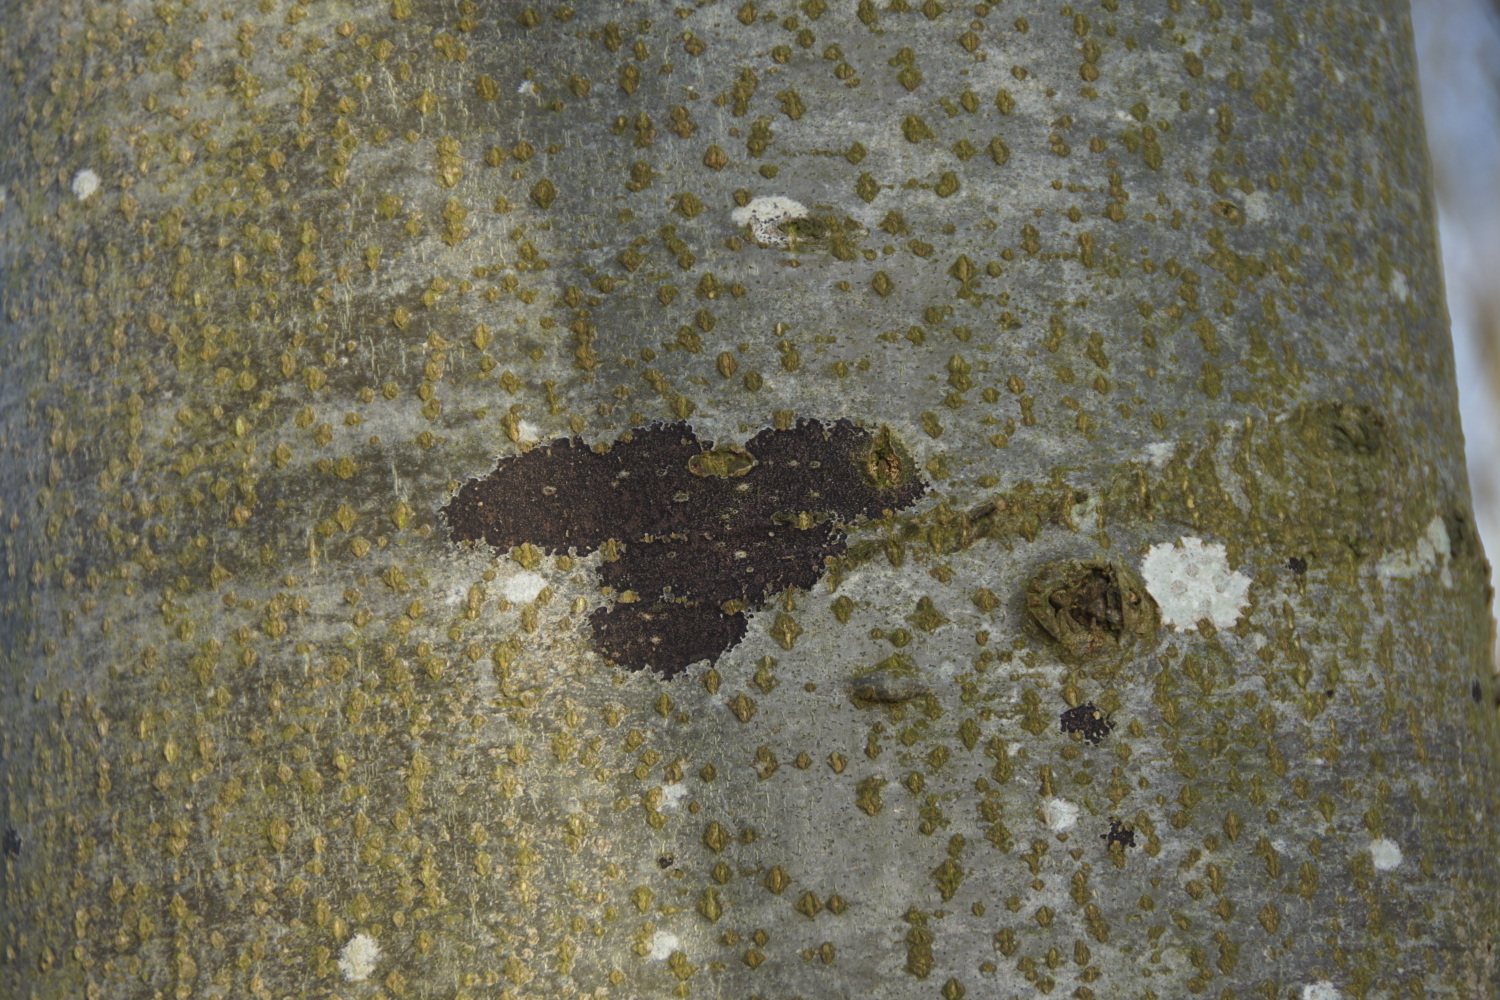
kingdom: Fungi
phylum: Ascomycota
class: Leotiomycetes
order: Rhytismatales
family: Ascodichaenaceae
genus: Ascodichaena
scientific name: Ascodichaena rugosa
